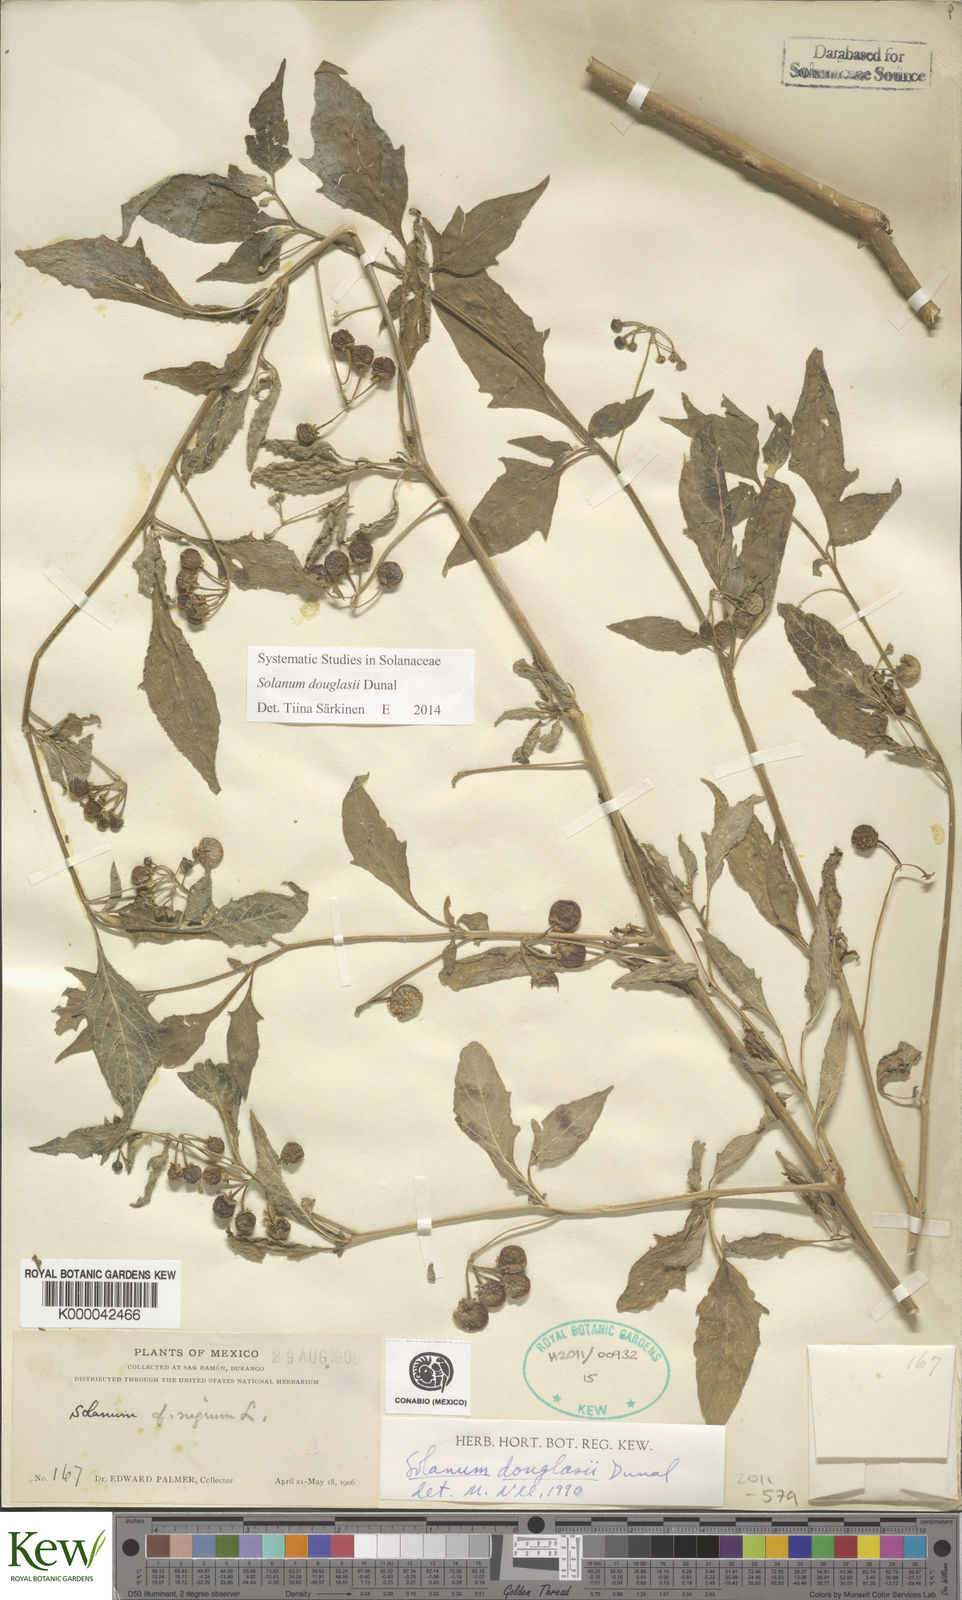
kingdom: Plantae
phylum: Tracheophyta
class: Magnoliopsida
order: Solanales
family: Solanaceae
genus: Solanum
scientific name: Solanum douglasii
